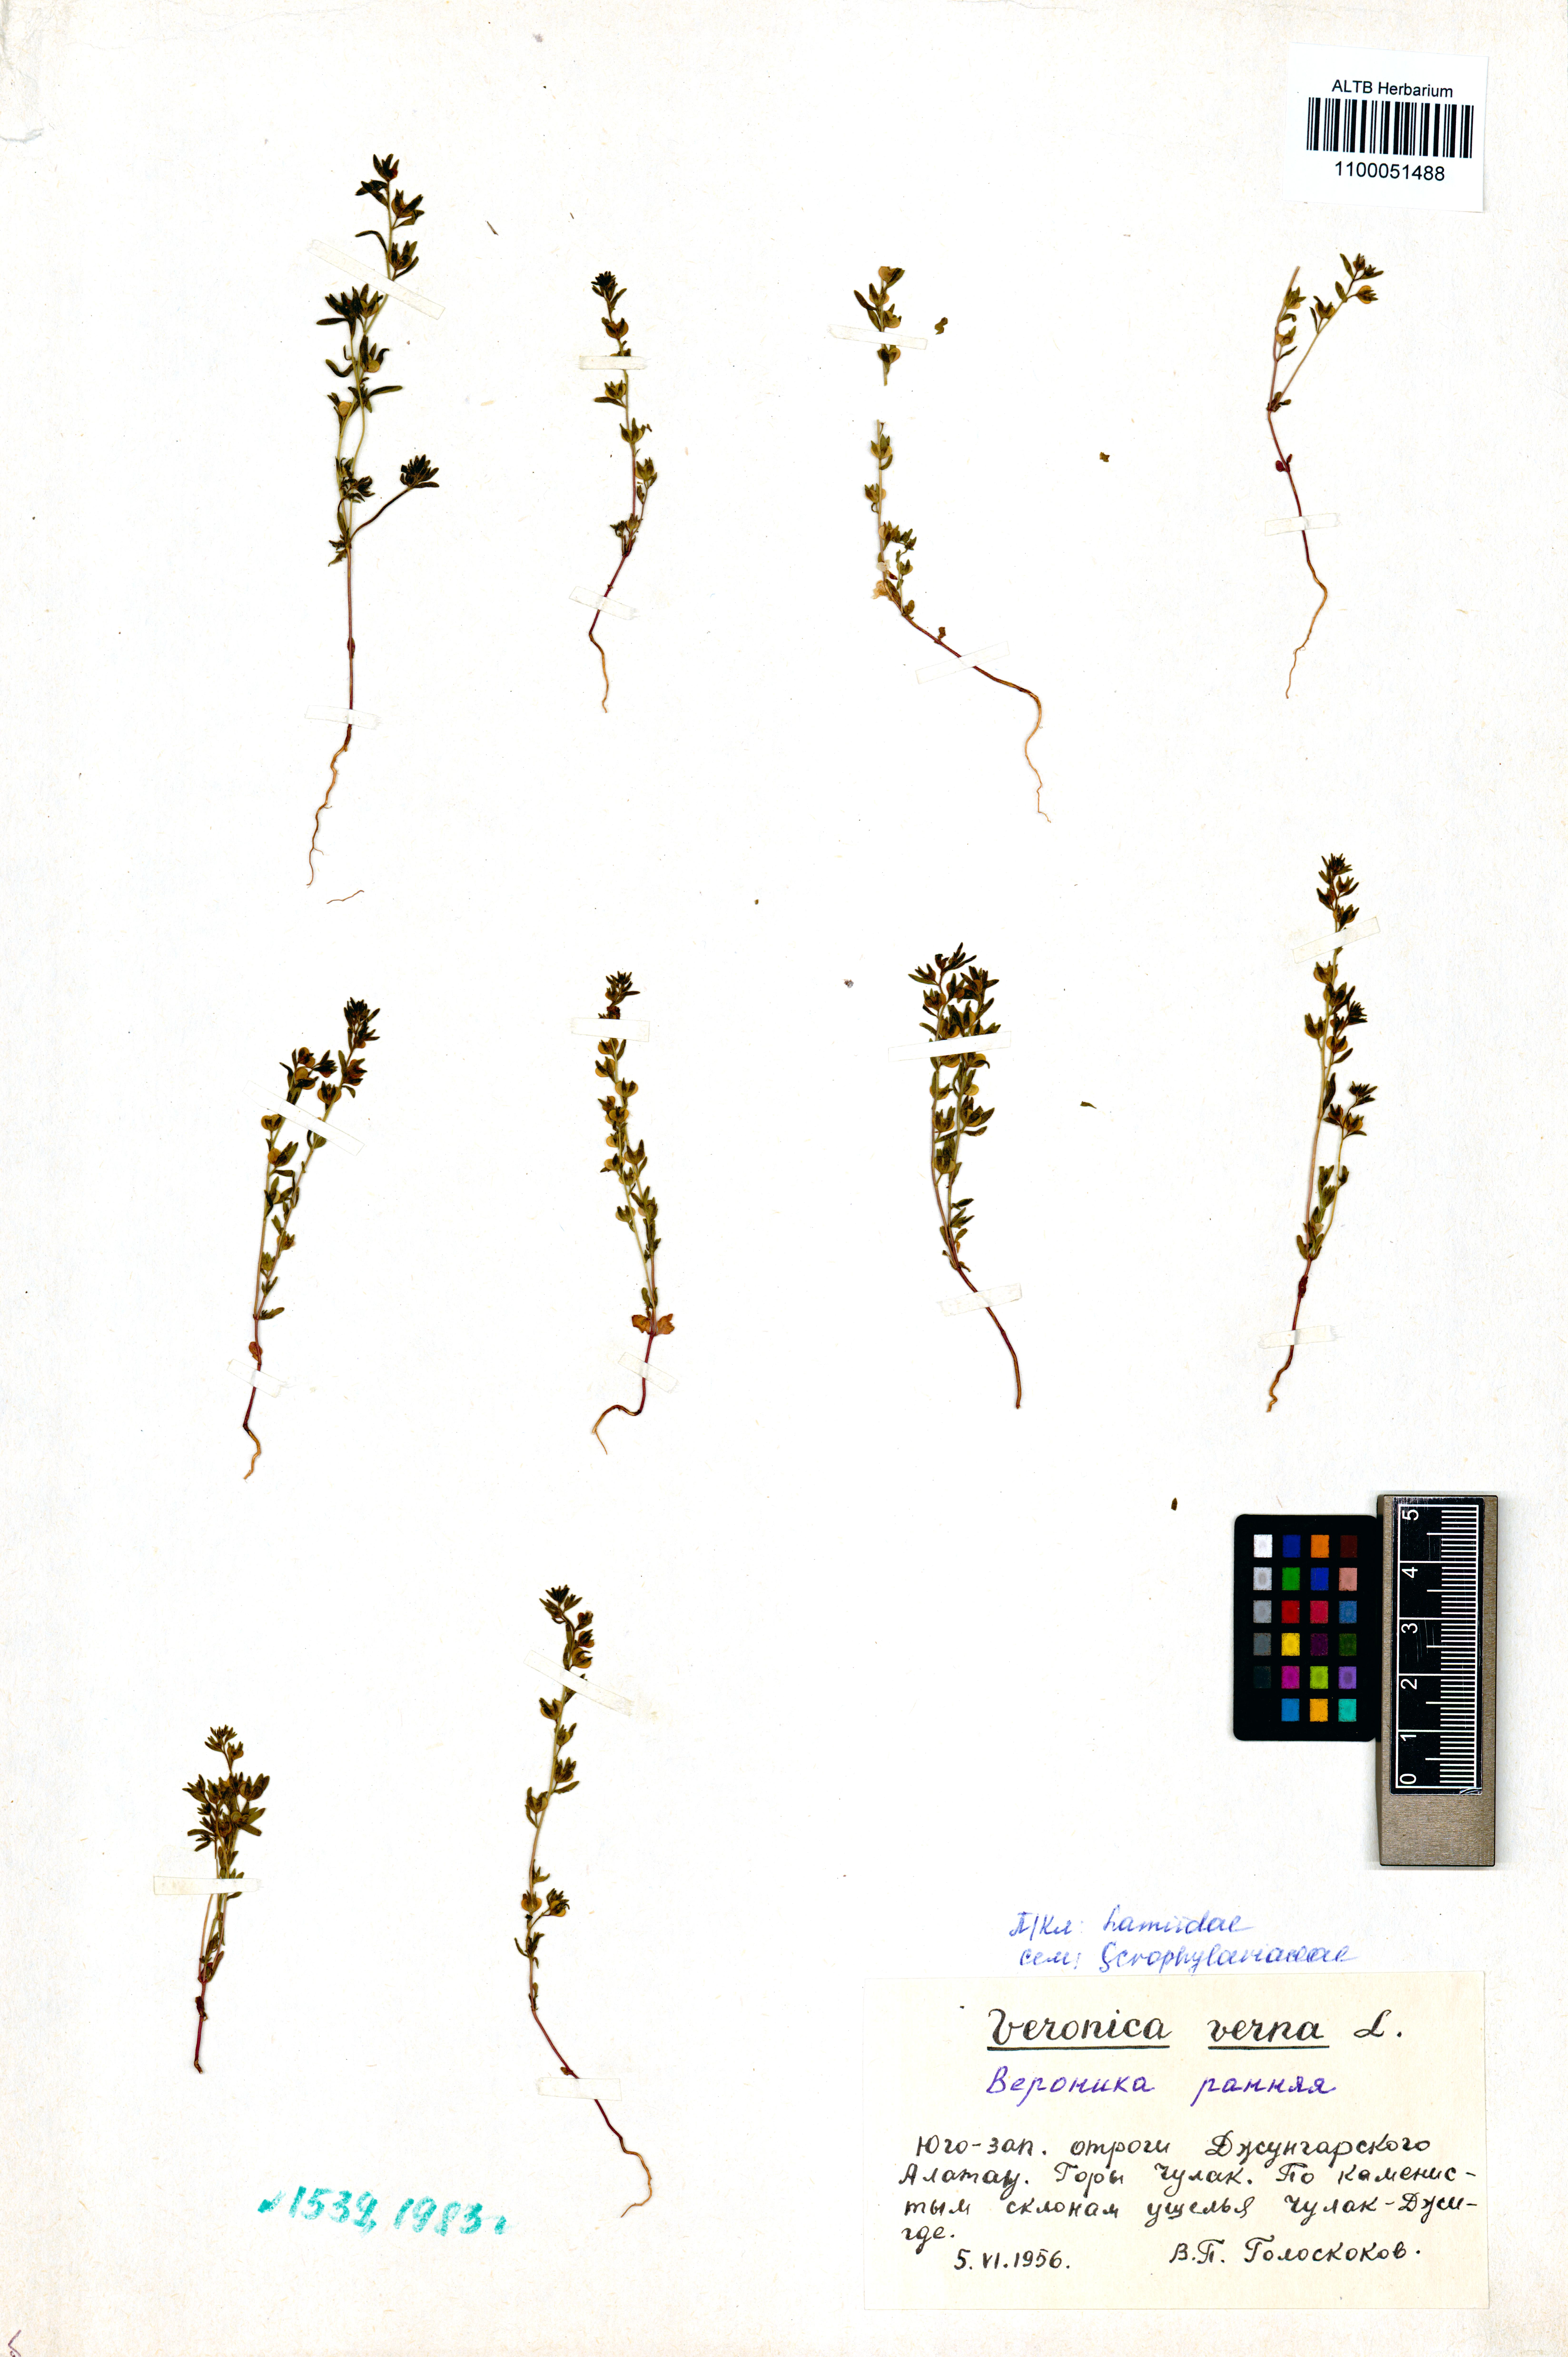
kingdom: Plantae
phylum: Tracheophyta
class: Magnoliopsida
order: Lamiales
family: Plantaginaceae
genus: Veronica
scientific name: Veronica verna
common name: Spring speedwell
